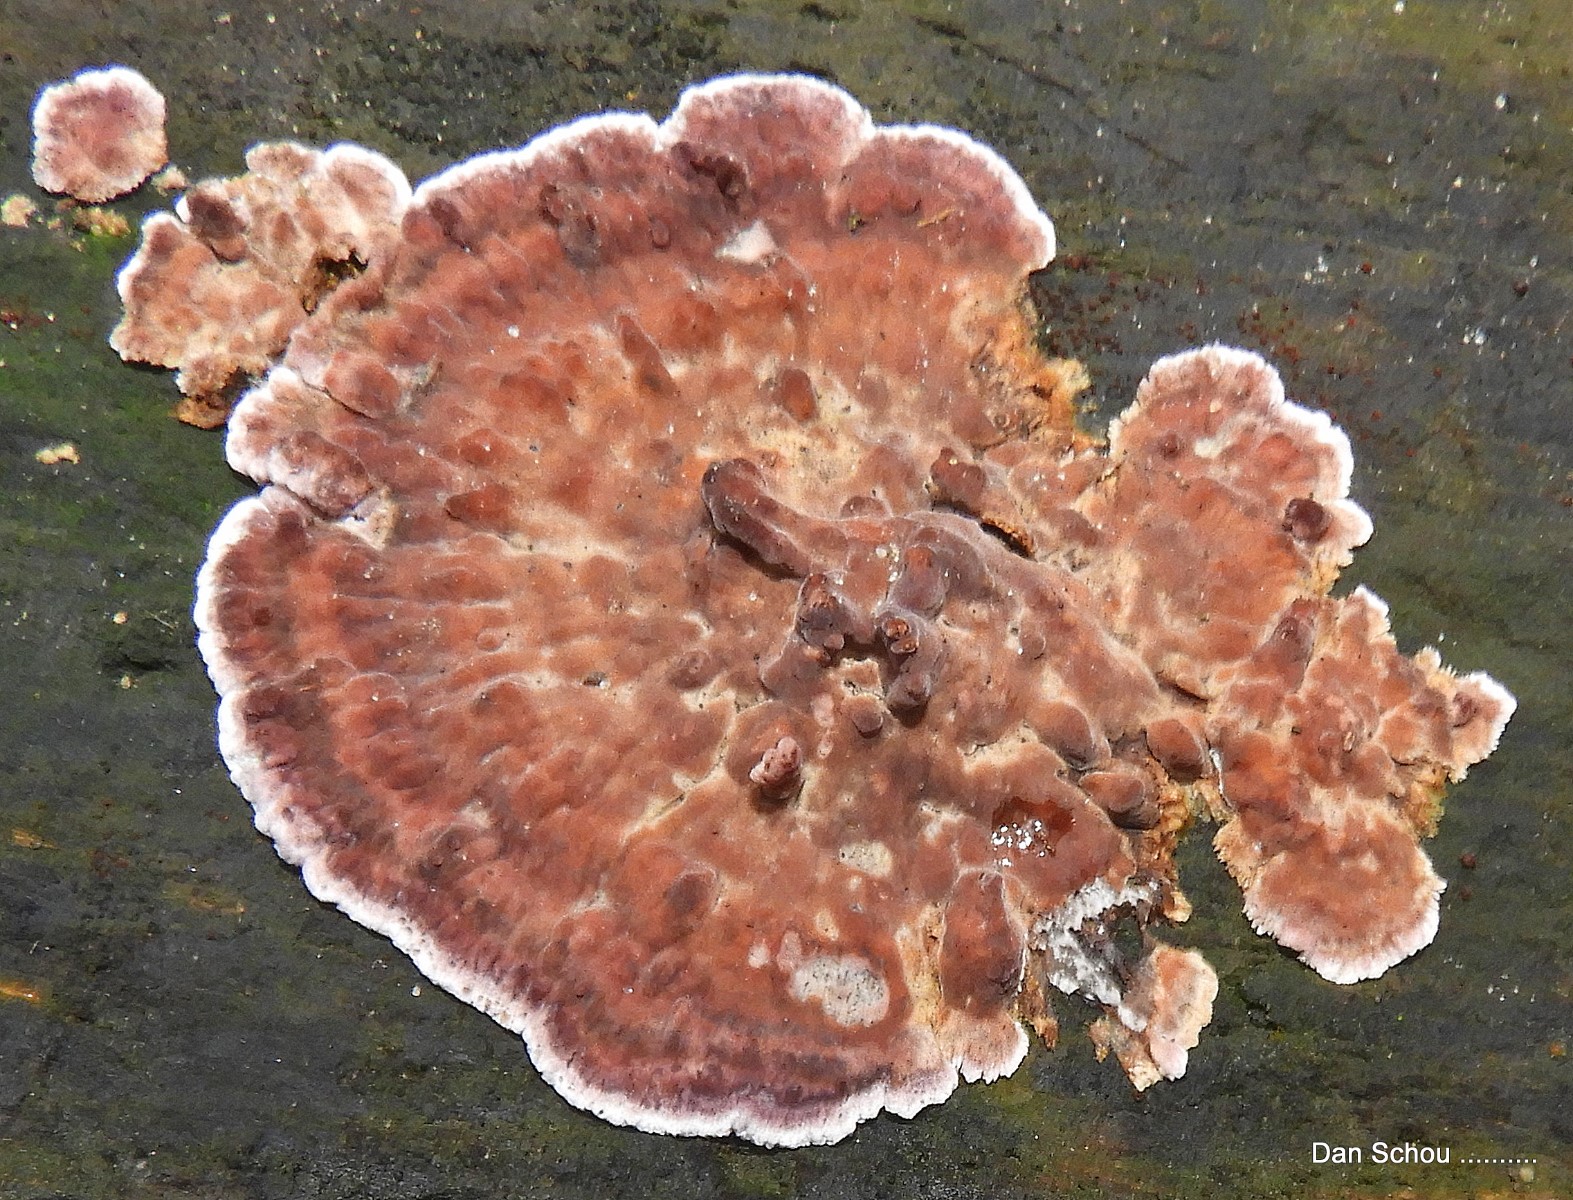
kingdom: Fungi
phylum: Basidiomycota
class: Agaricomycetes
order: Agaricales
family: Cyphellaceae
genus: Chondrostereum
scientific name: Chondrostereum purpureum
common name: purpurlædersvamp
